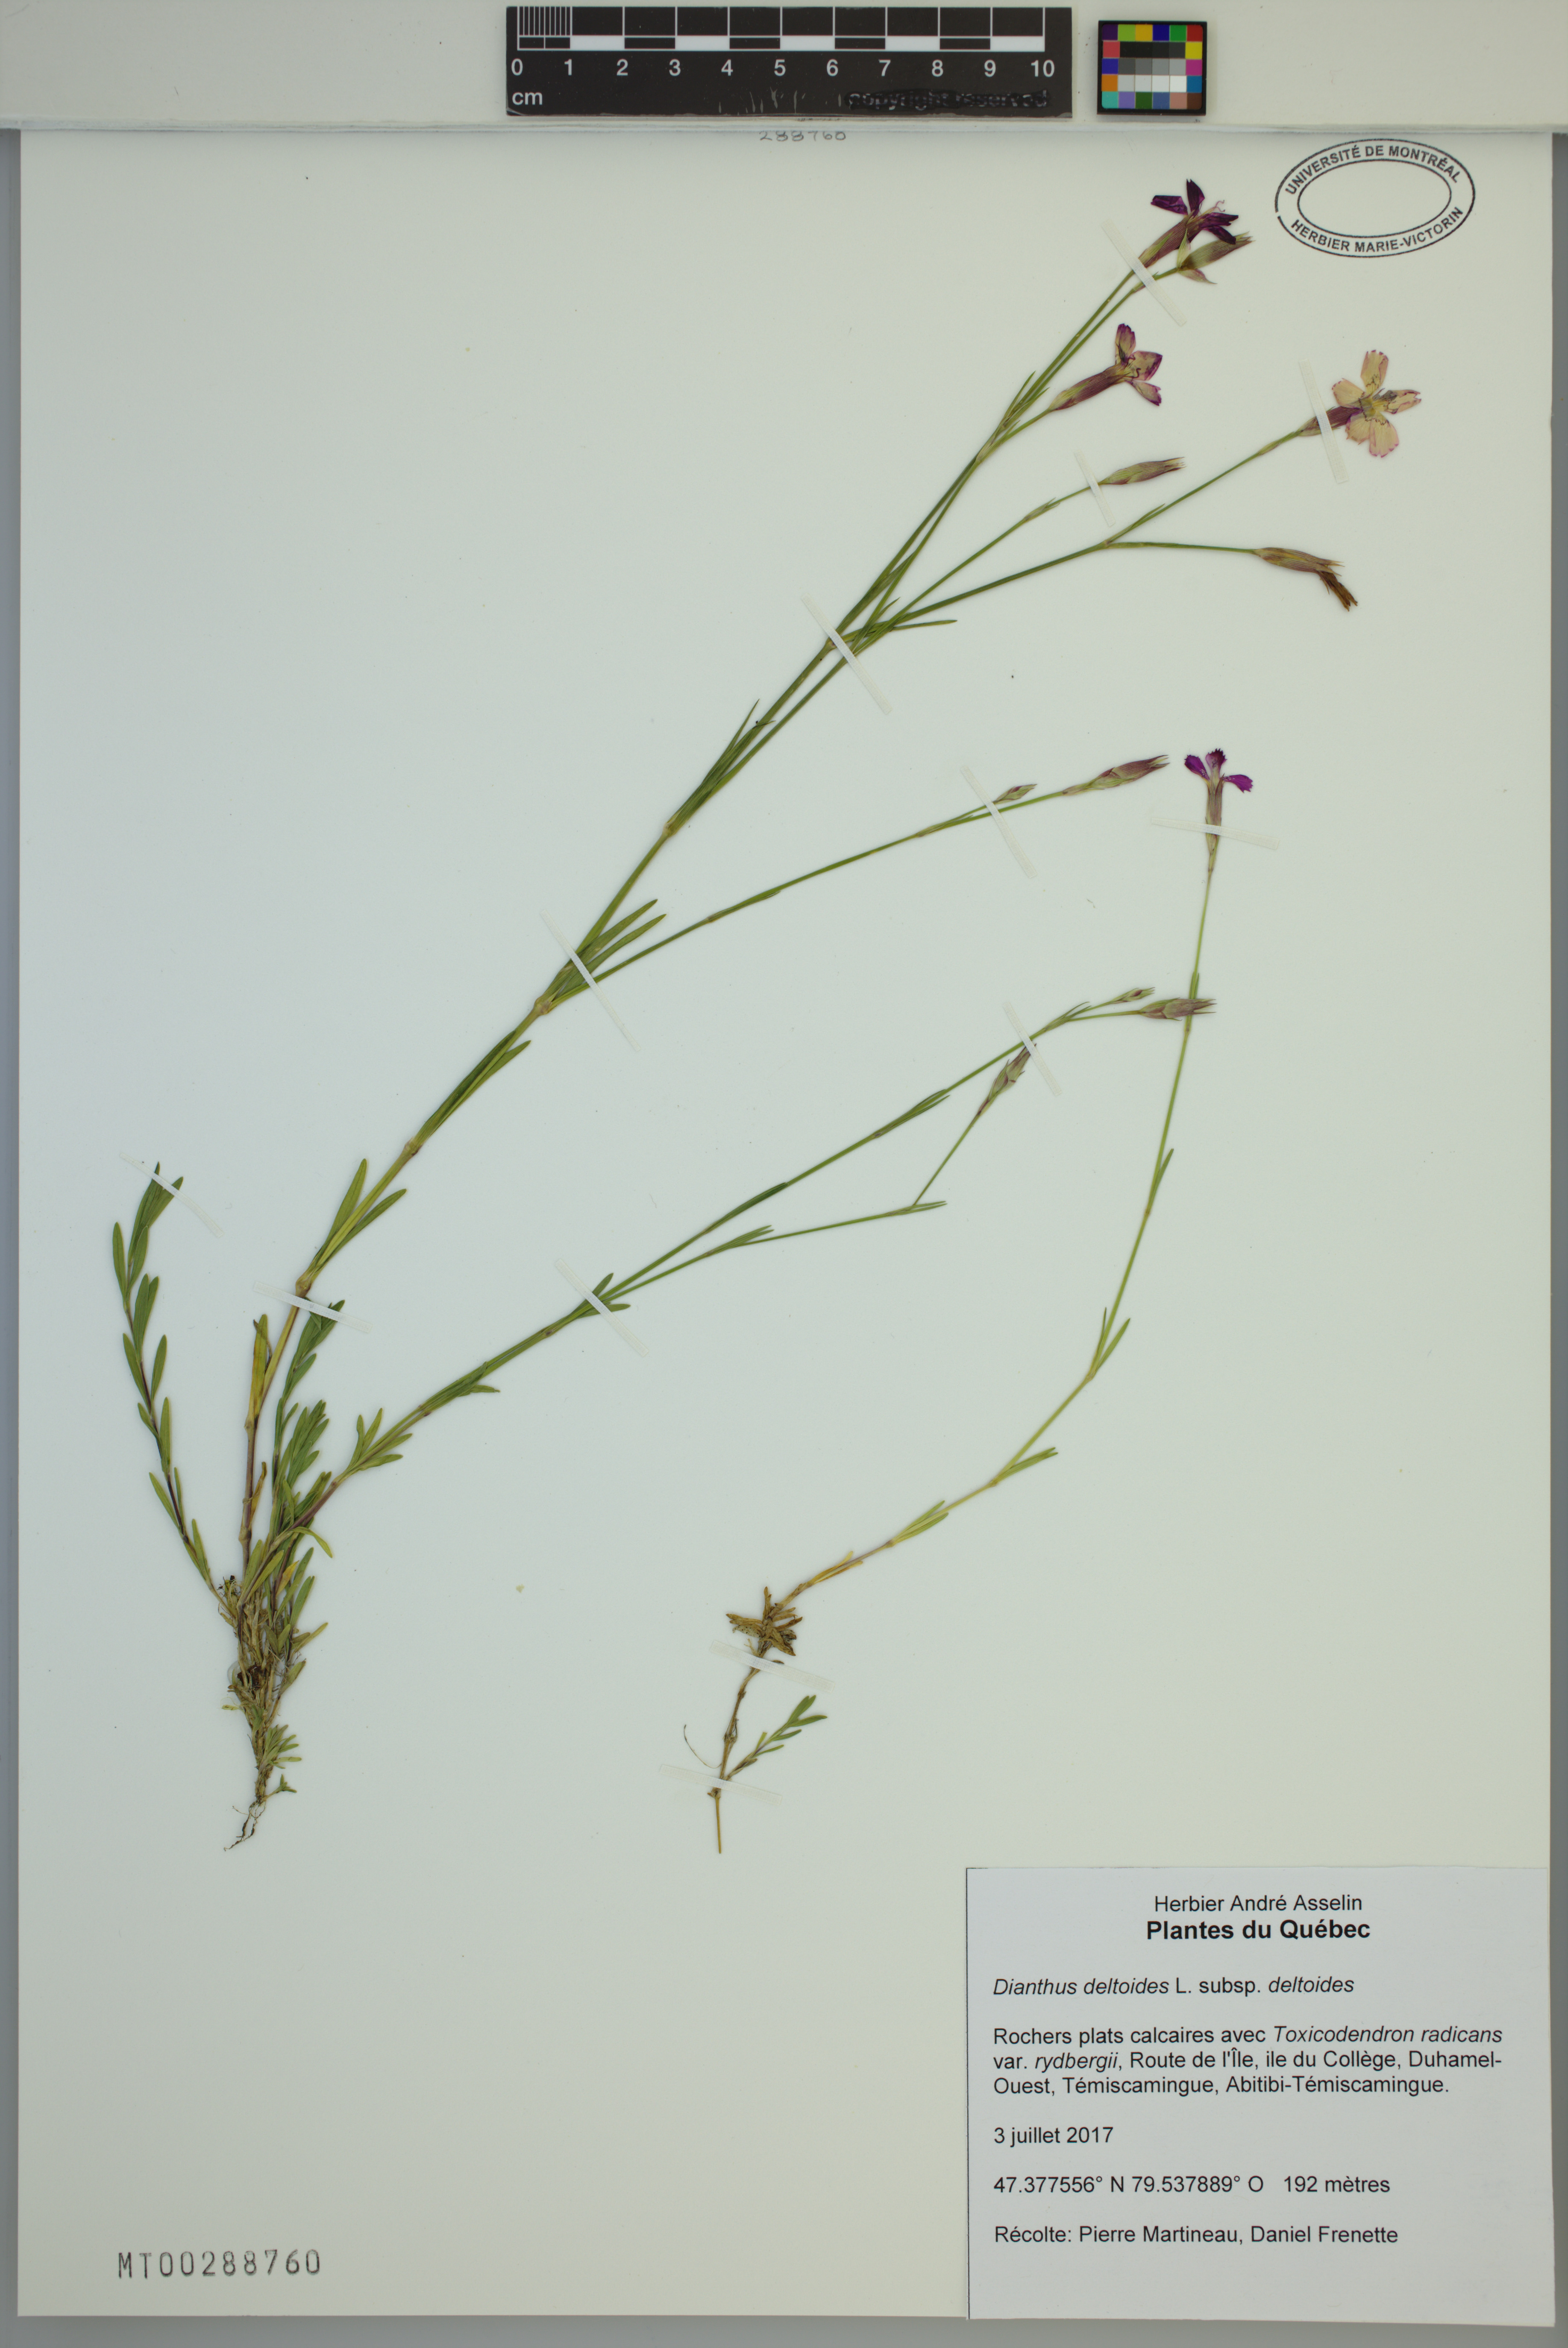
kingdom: Plantae
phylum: Tracheophyta
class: Magnoliopsida
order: Caryophyllales
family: Caryophyllaceae
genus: Dianthus
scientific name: Dianthus deltoides
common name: Maiden pink
